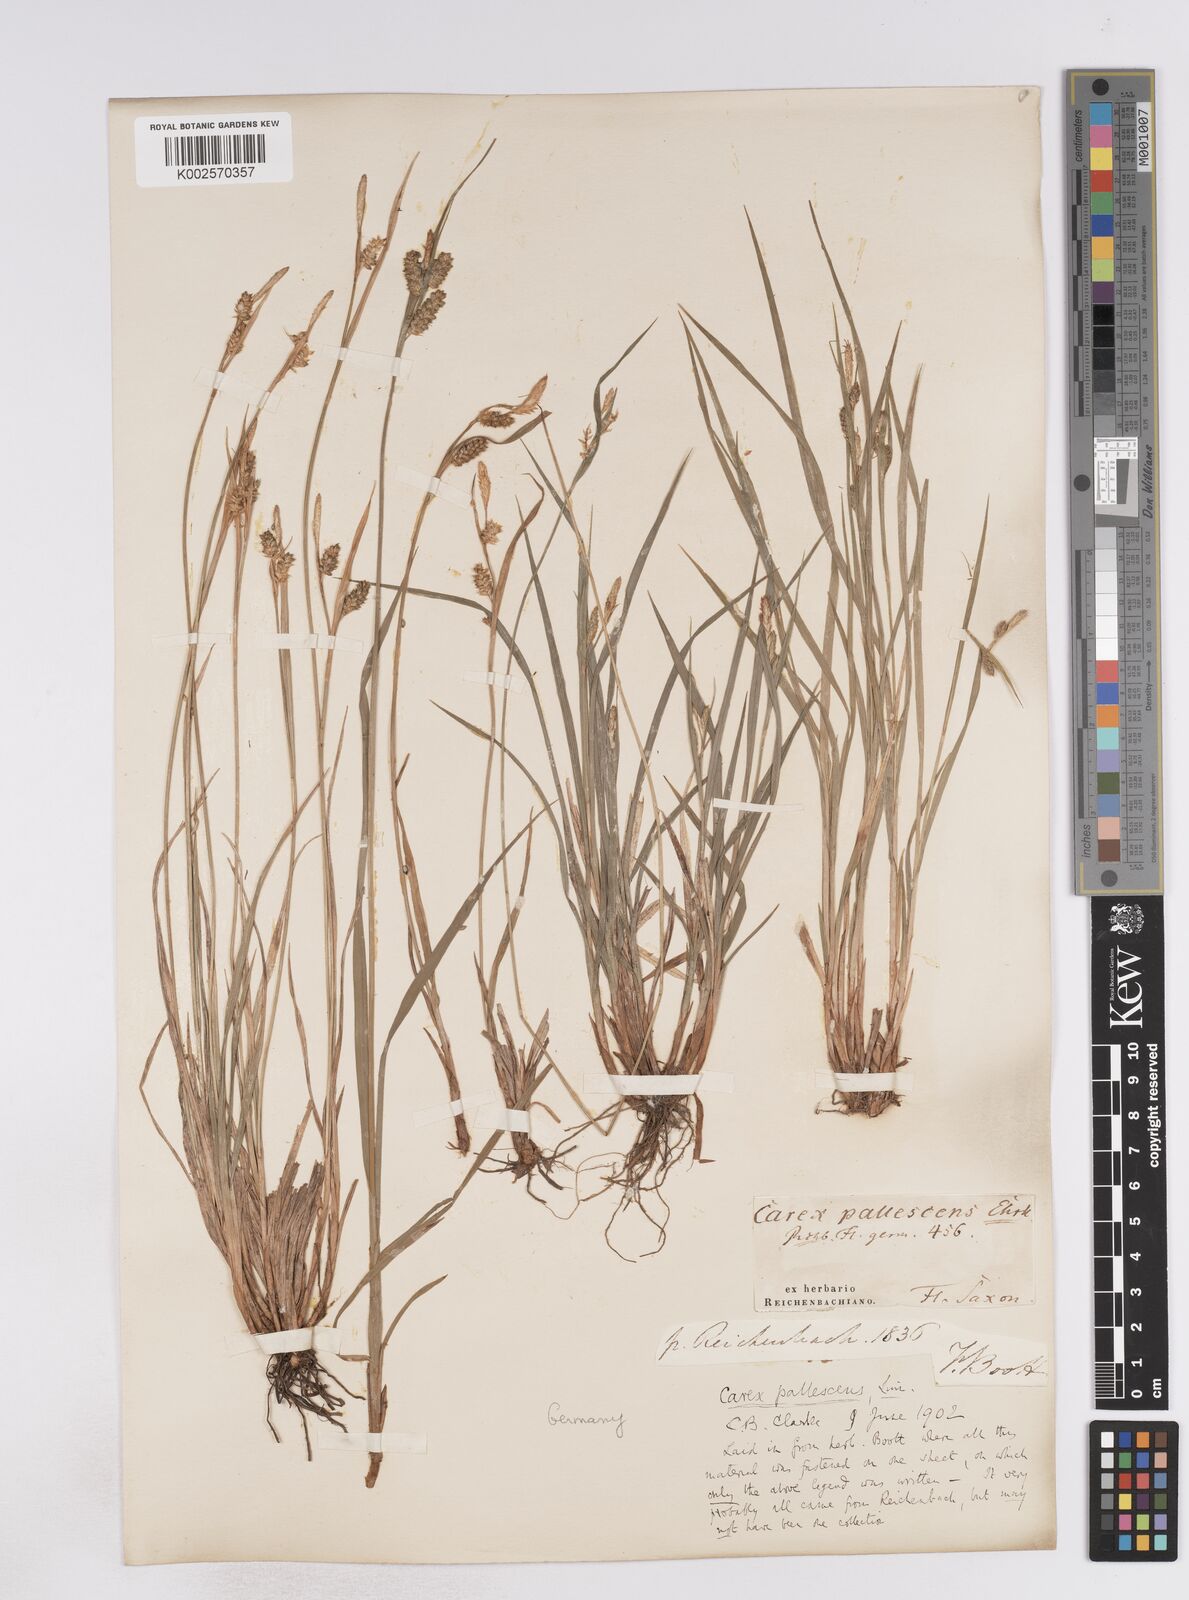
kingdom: Plantae
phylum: Tracheophyta
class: Liliopsida
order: Poales
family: Cyperaceae
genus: Carex
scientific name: Carex pallescens
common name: Pale sedge
